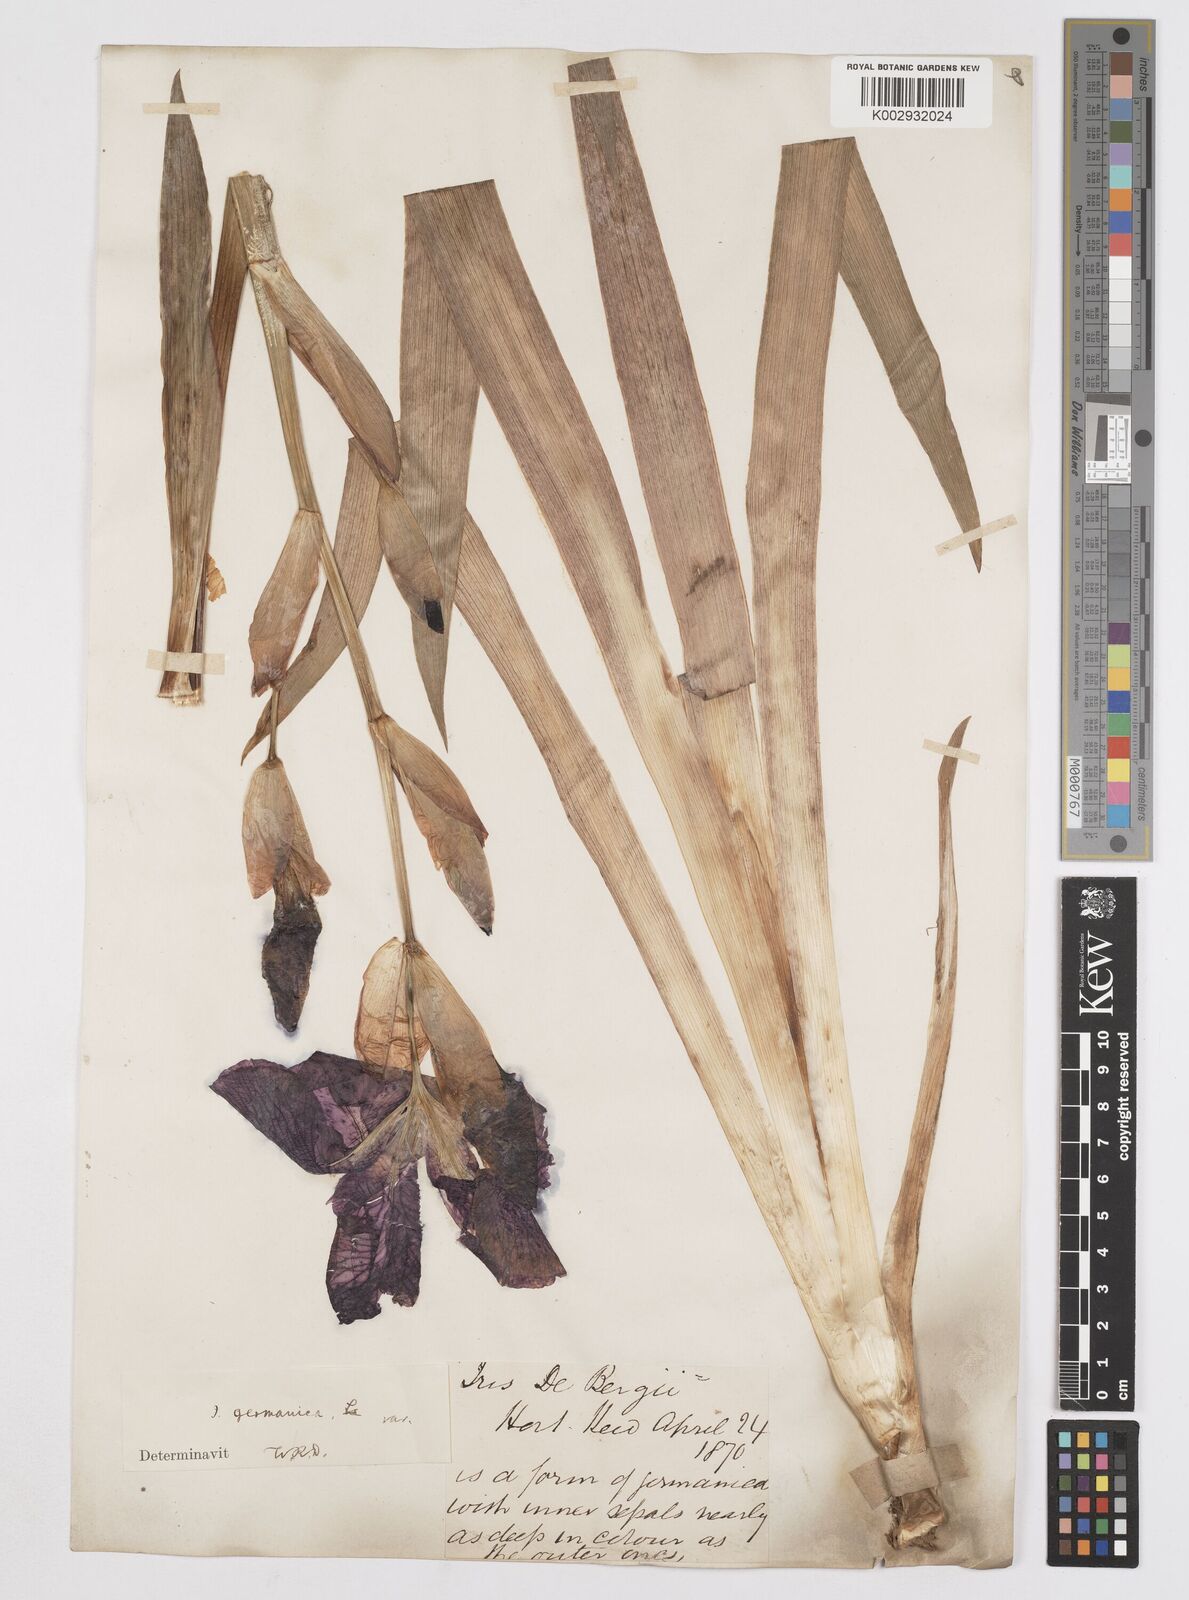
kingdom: Plantae
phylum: Tracheophyta
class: Liliopsida
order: Asparagales
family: Iridaceae
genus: Iris
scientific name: Iris germanica
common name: German iris
